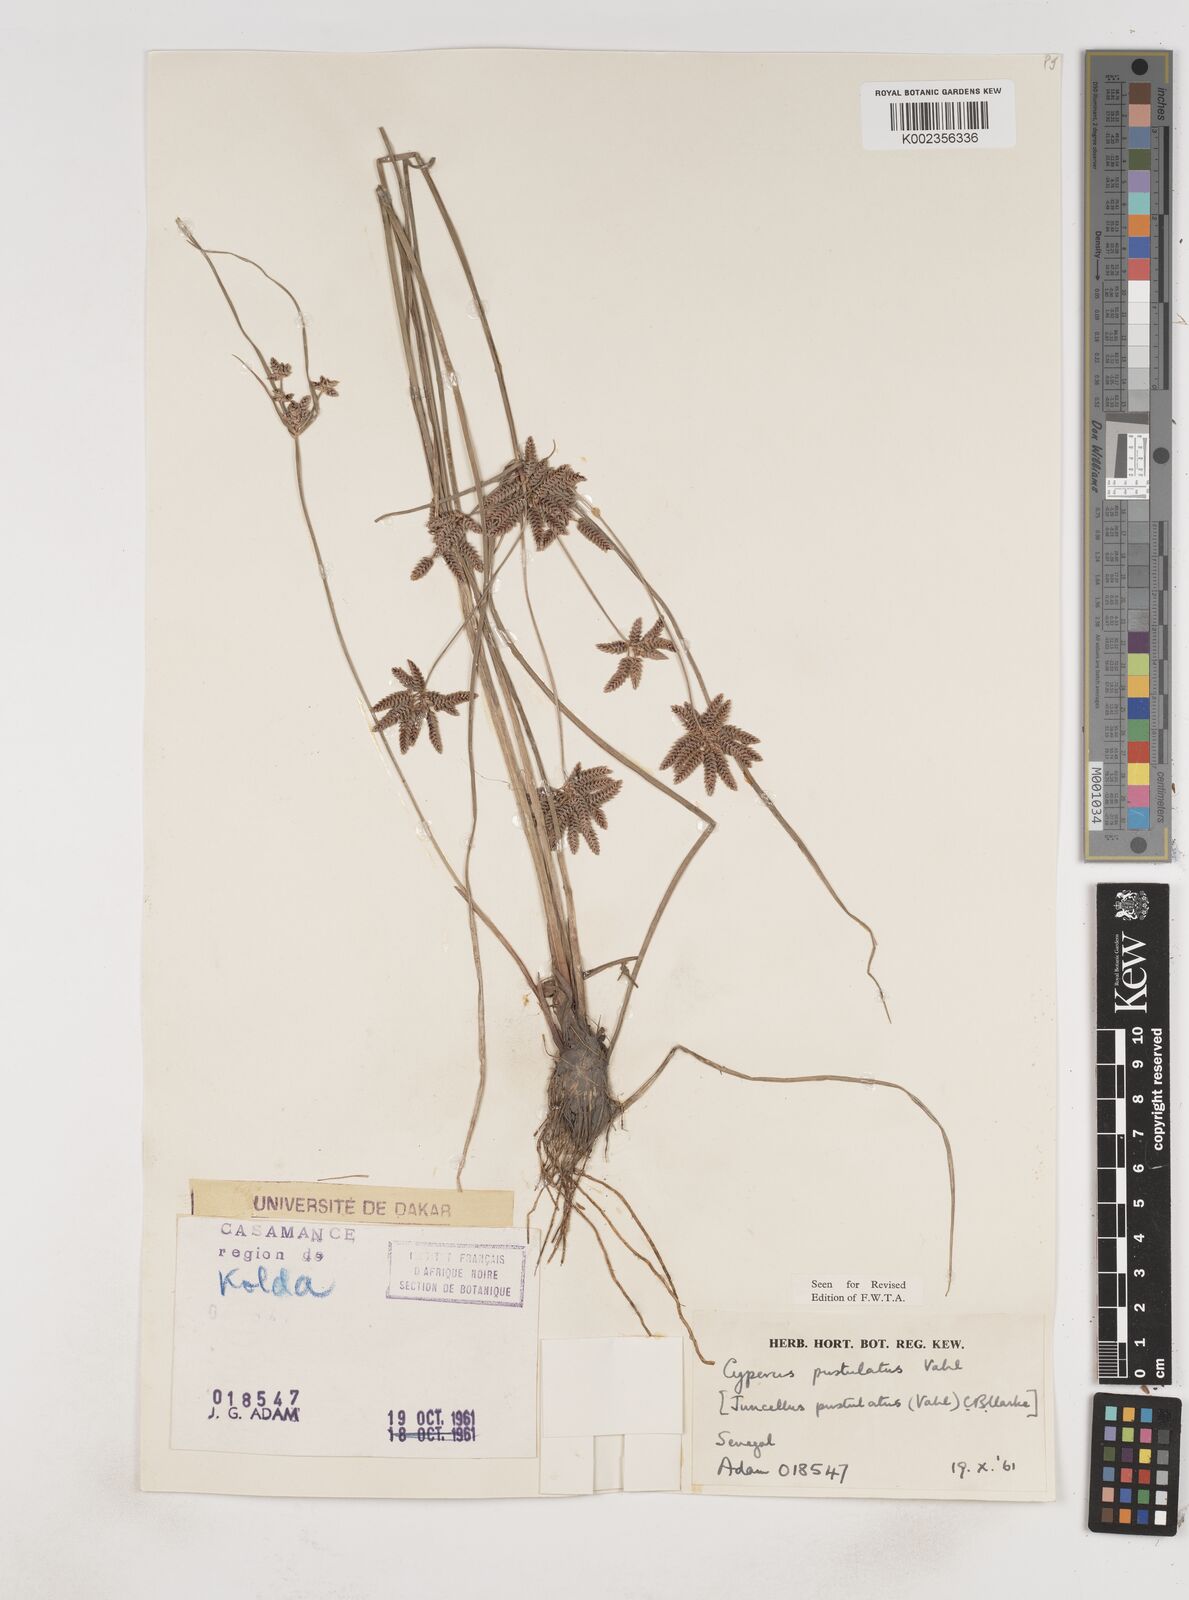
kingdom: Plantae
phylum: Tracheophyta
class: Liliopsida
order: Poales
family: Cyperaceae
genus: Cyperus
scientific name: Cyperus pustulatus
